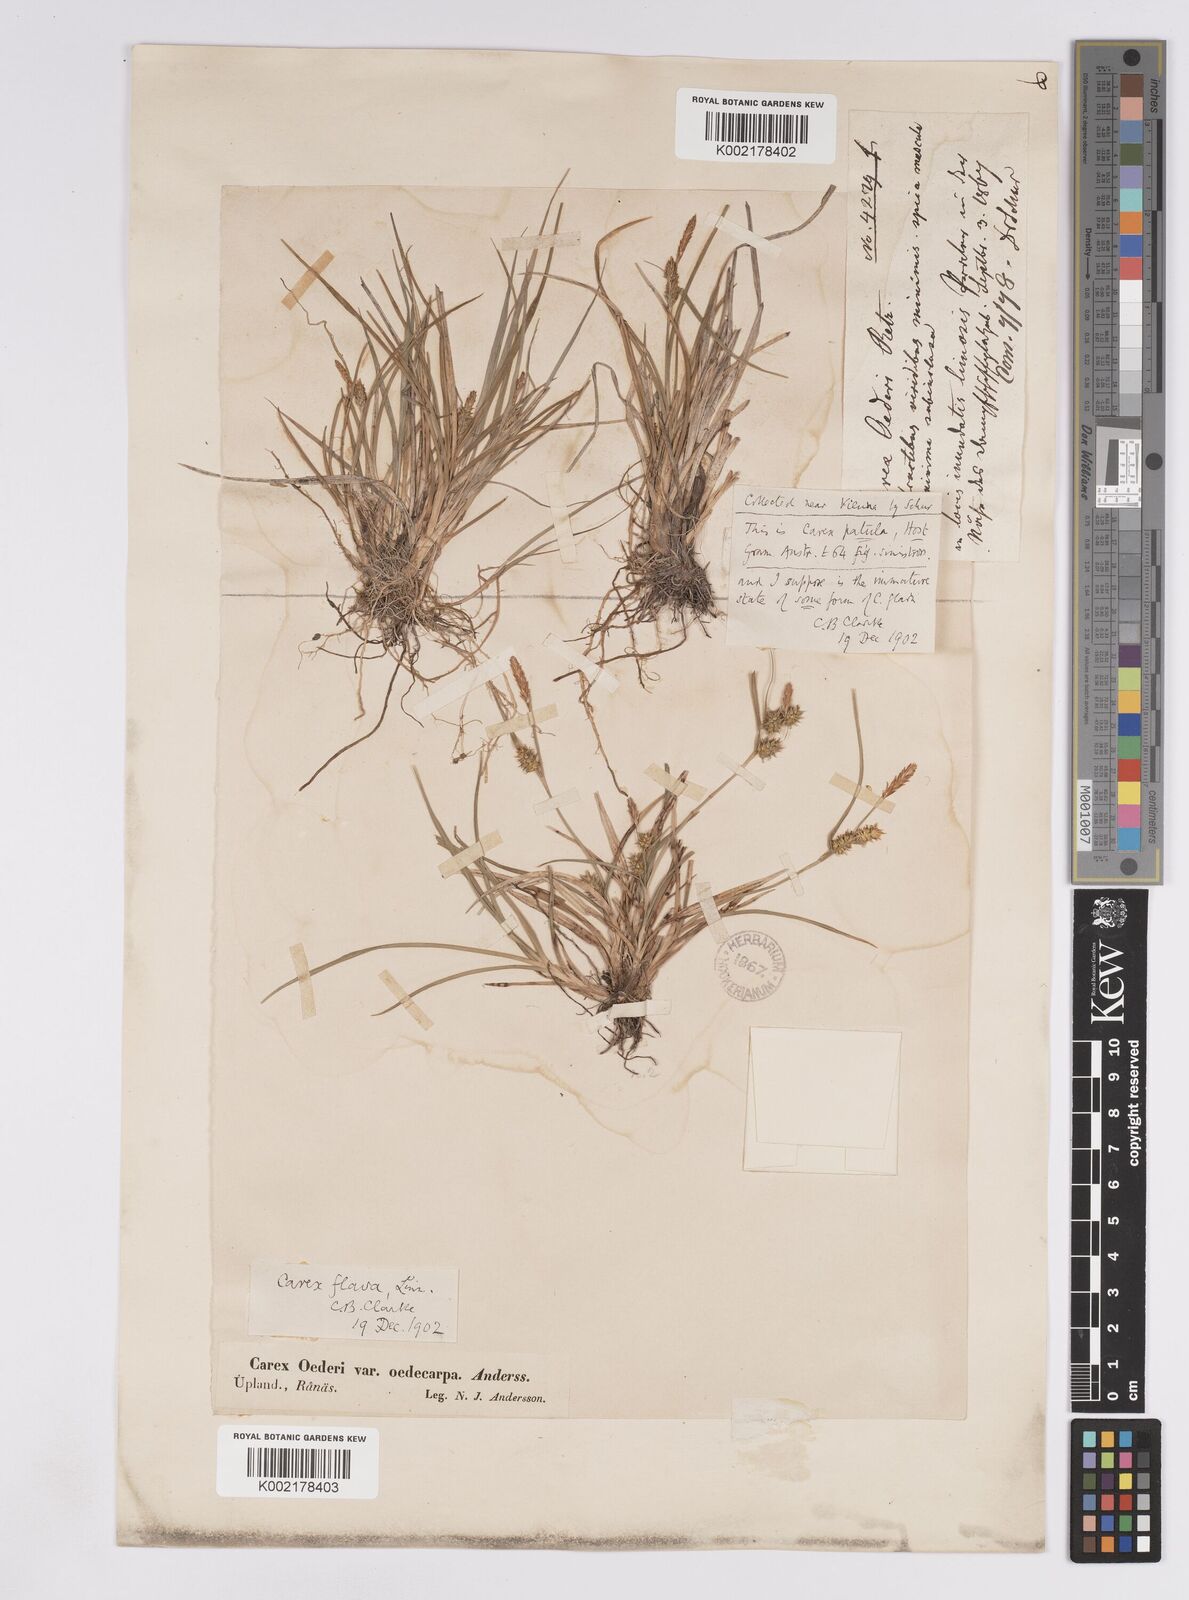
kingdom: Plantae
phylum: Tracheophyta
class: Liliopsida
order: Poales
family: Cyperaceae
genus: Carex
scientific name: Carex demissa
